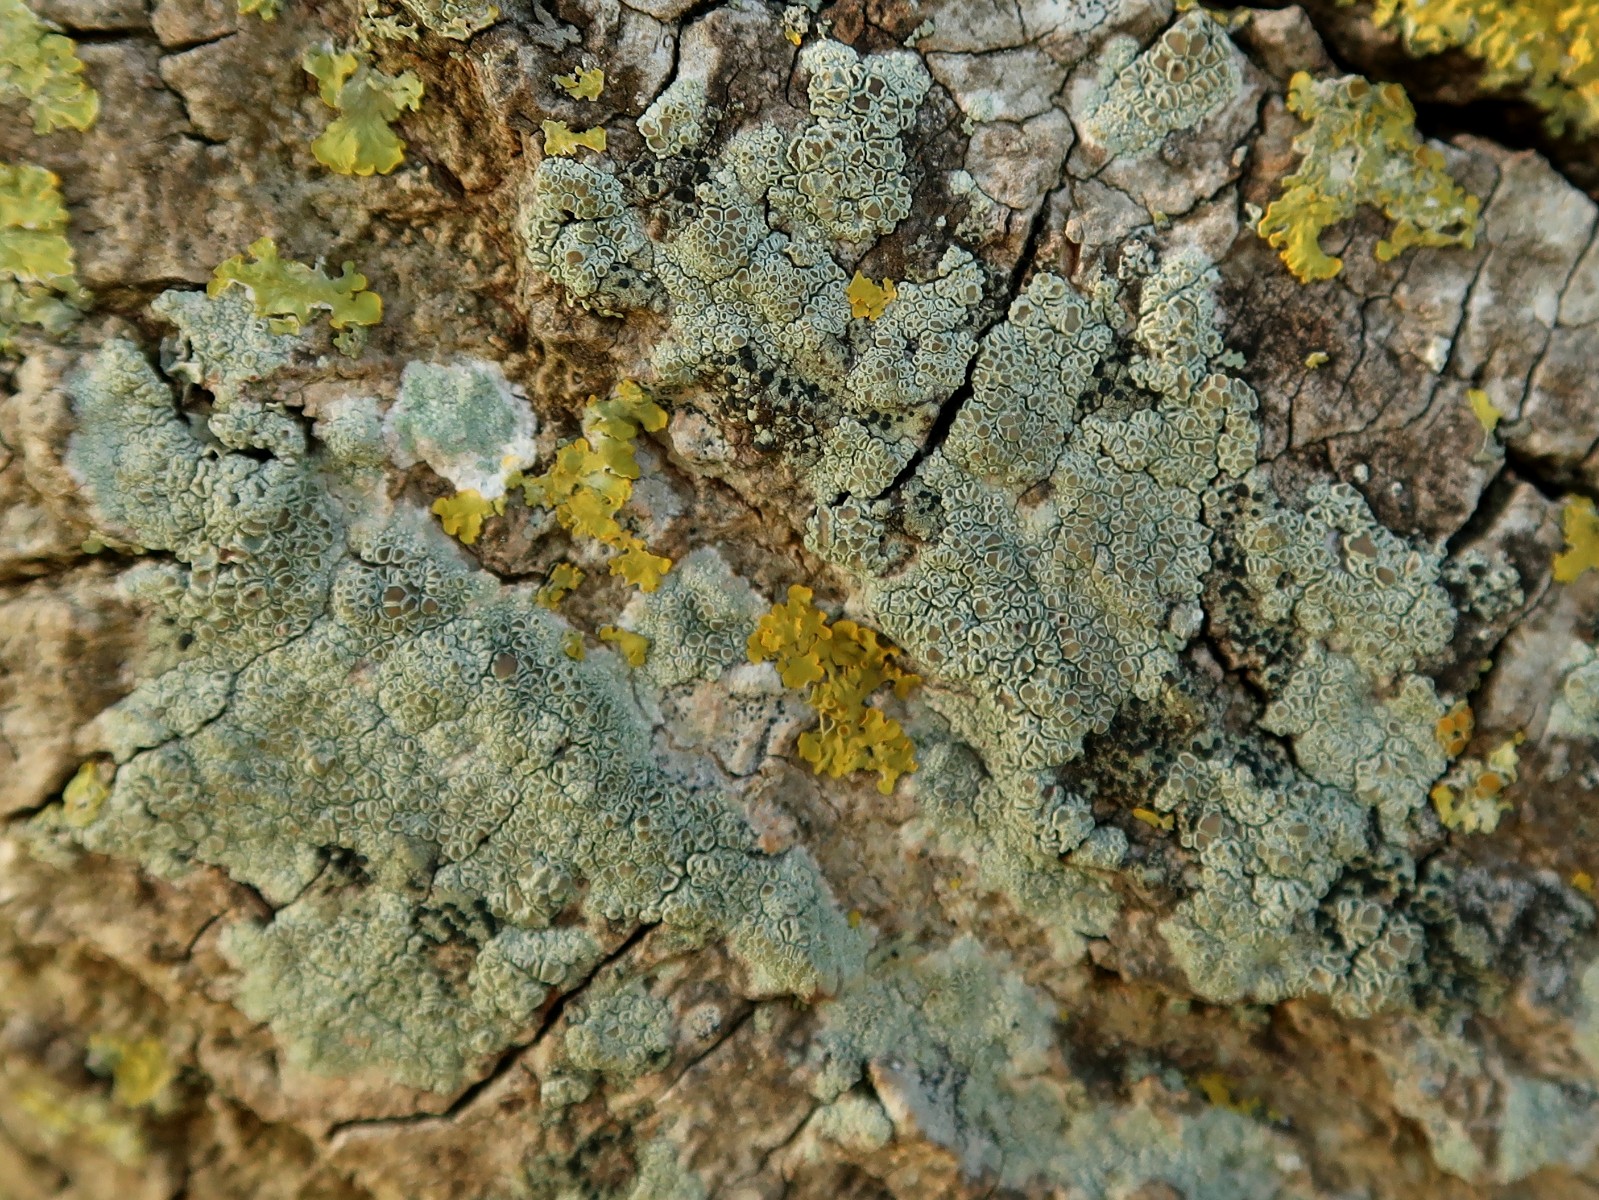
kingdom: Fungi
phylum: Ascomycota
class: Lecanoromycetes
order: Lecanorales
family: Lecanoraceae
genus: Lecanora
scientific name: Lecanora chlarotera
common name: brun kantskivelav
